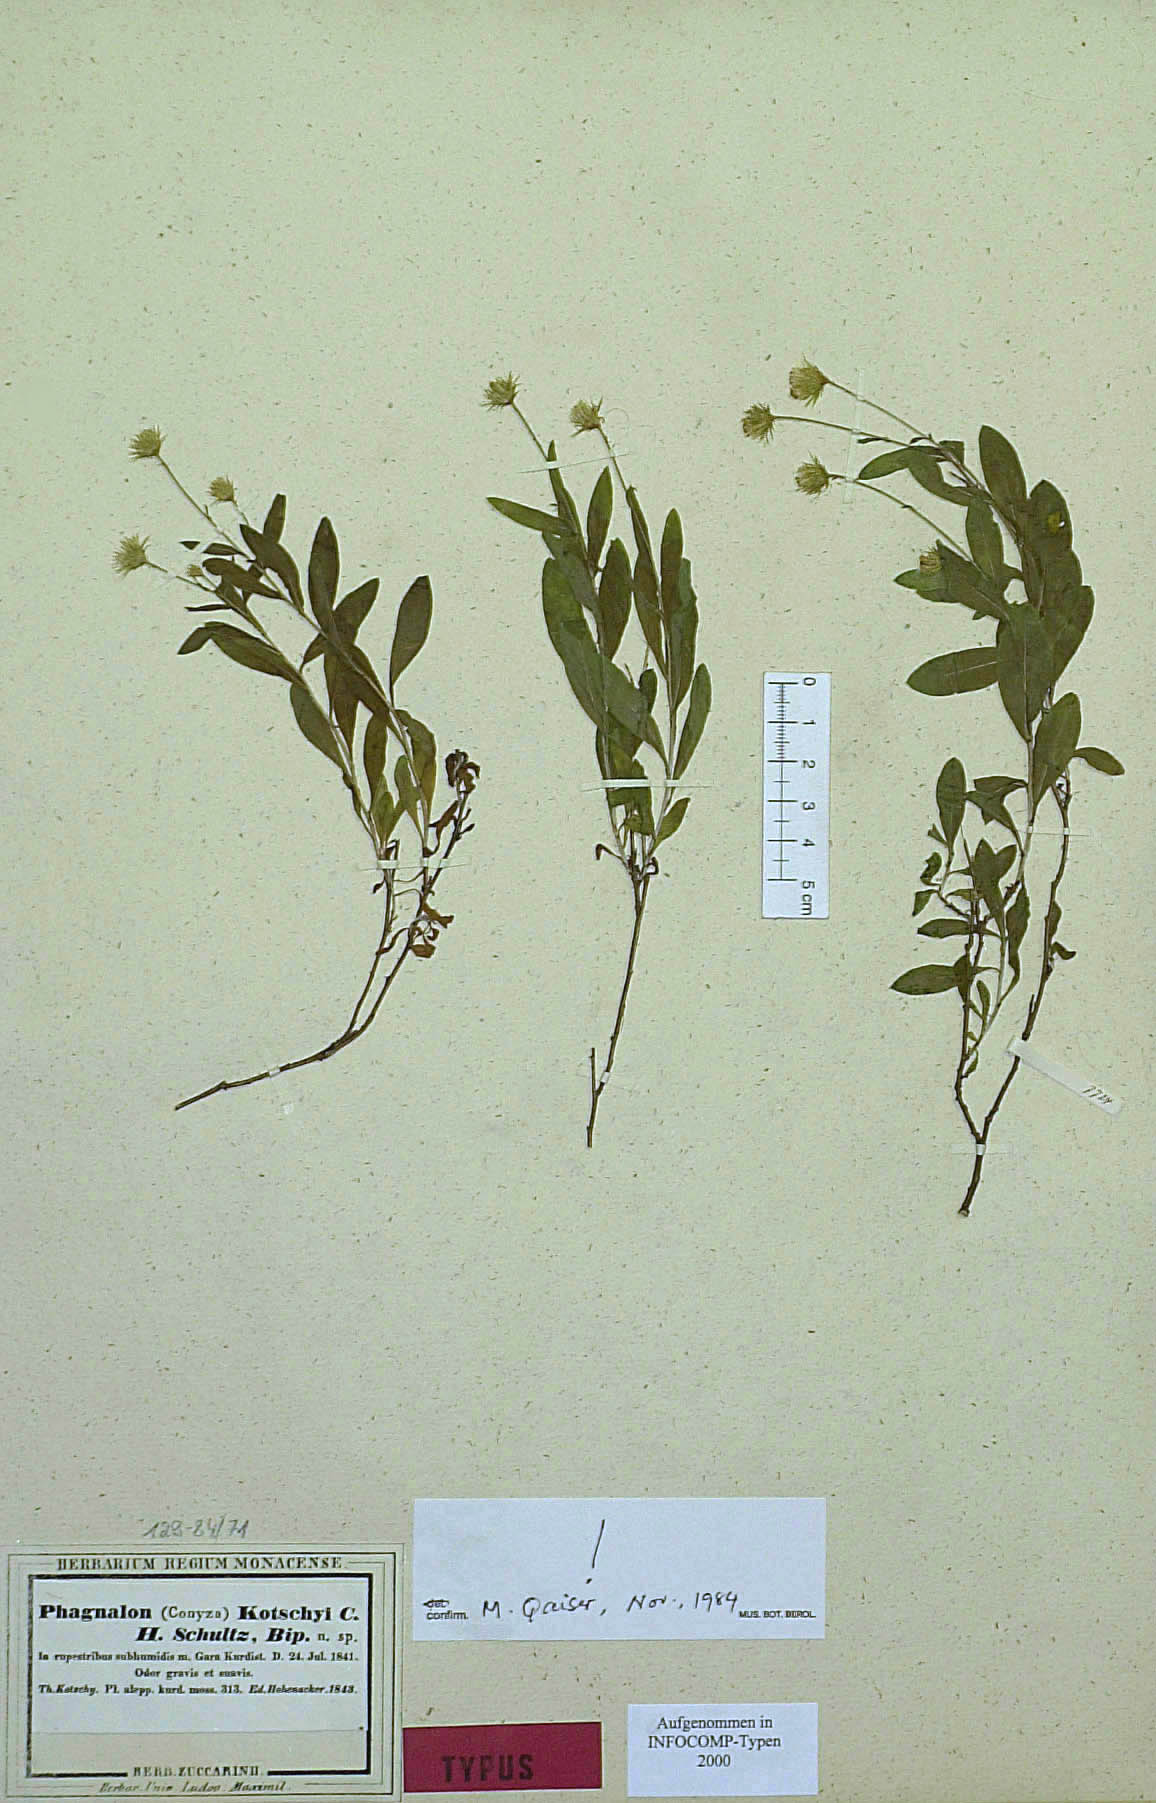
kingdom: Plantae
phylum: Tracheophyta
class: Magnoliopsida
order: Asterales
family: Asteraceae
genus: Phagnalon
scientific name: Phagnalon kotschyi
